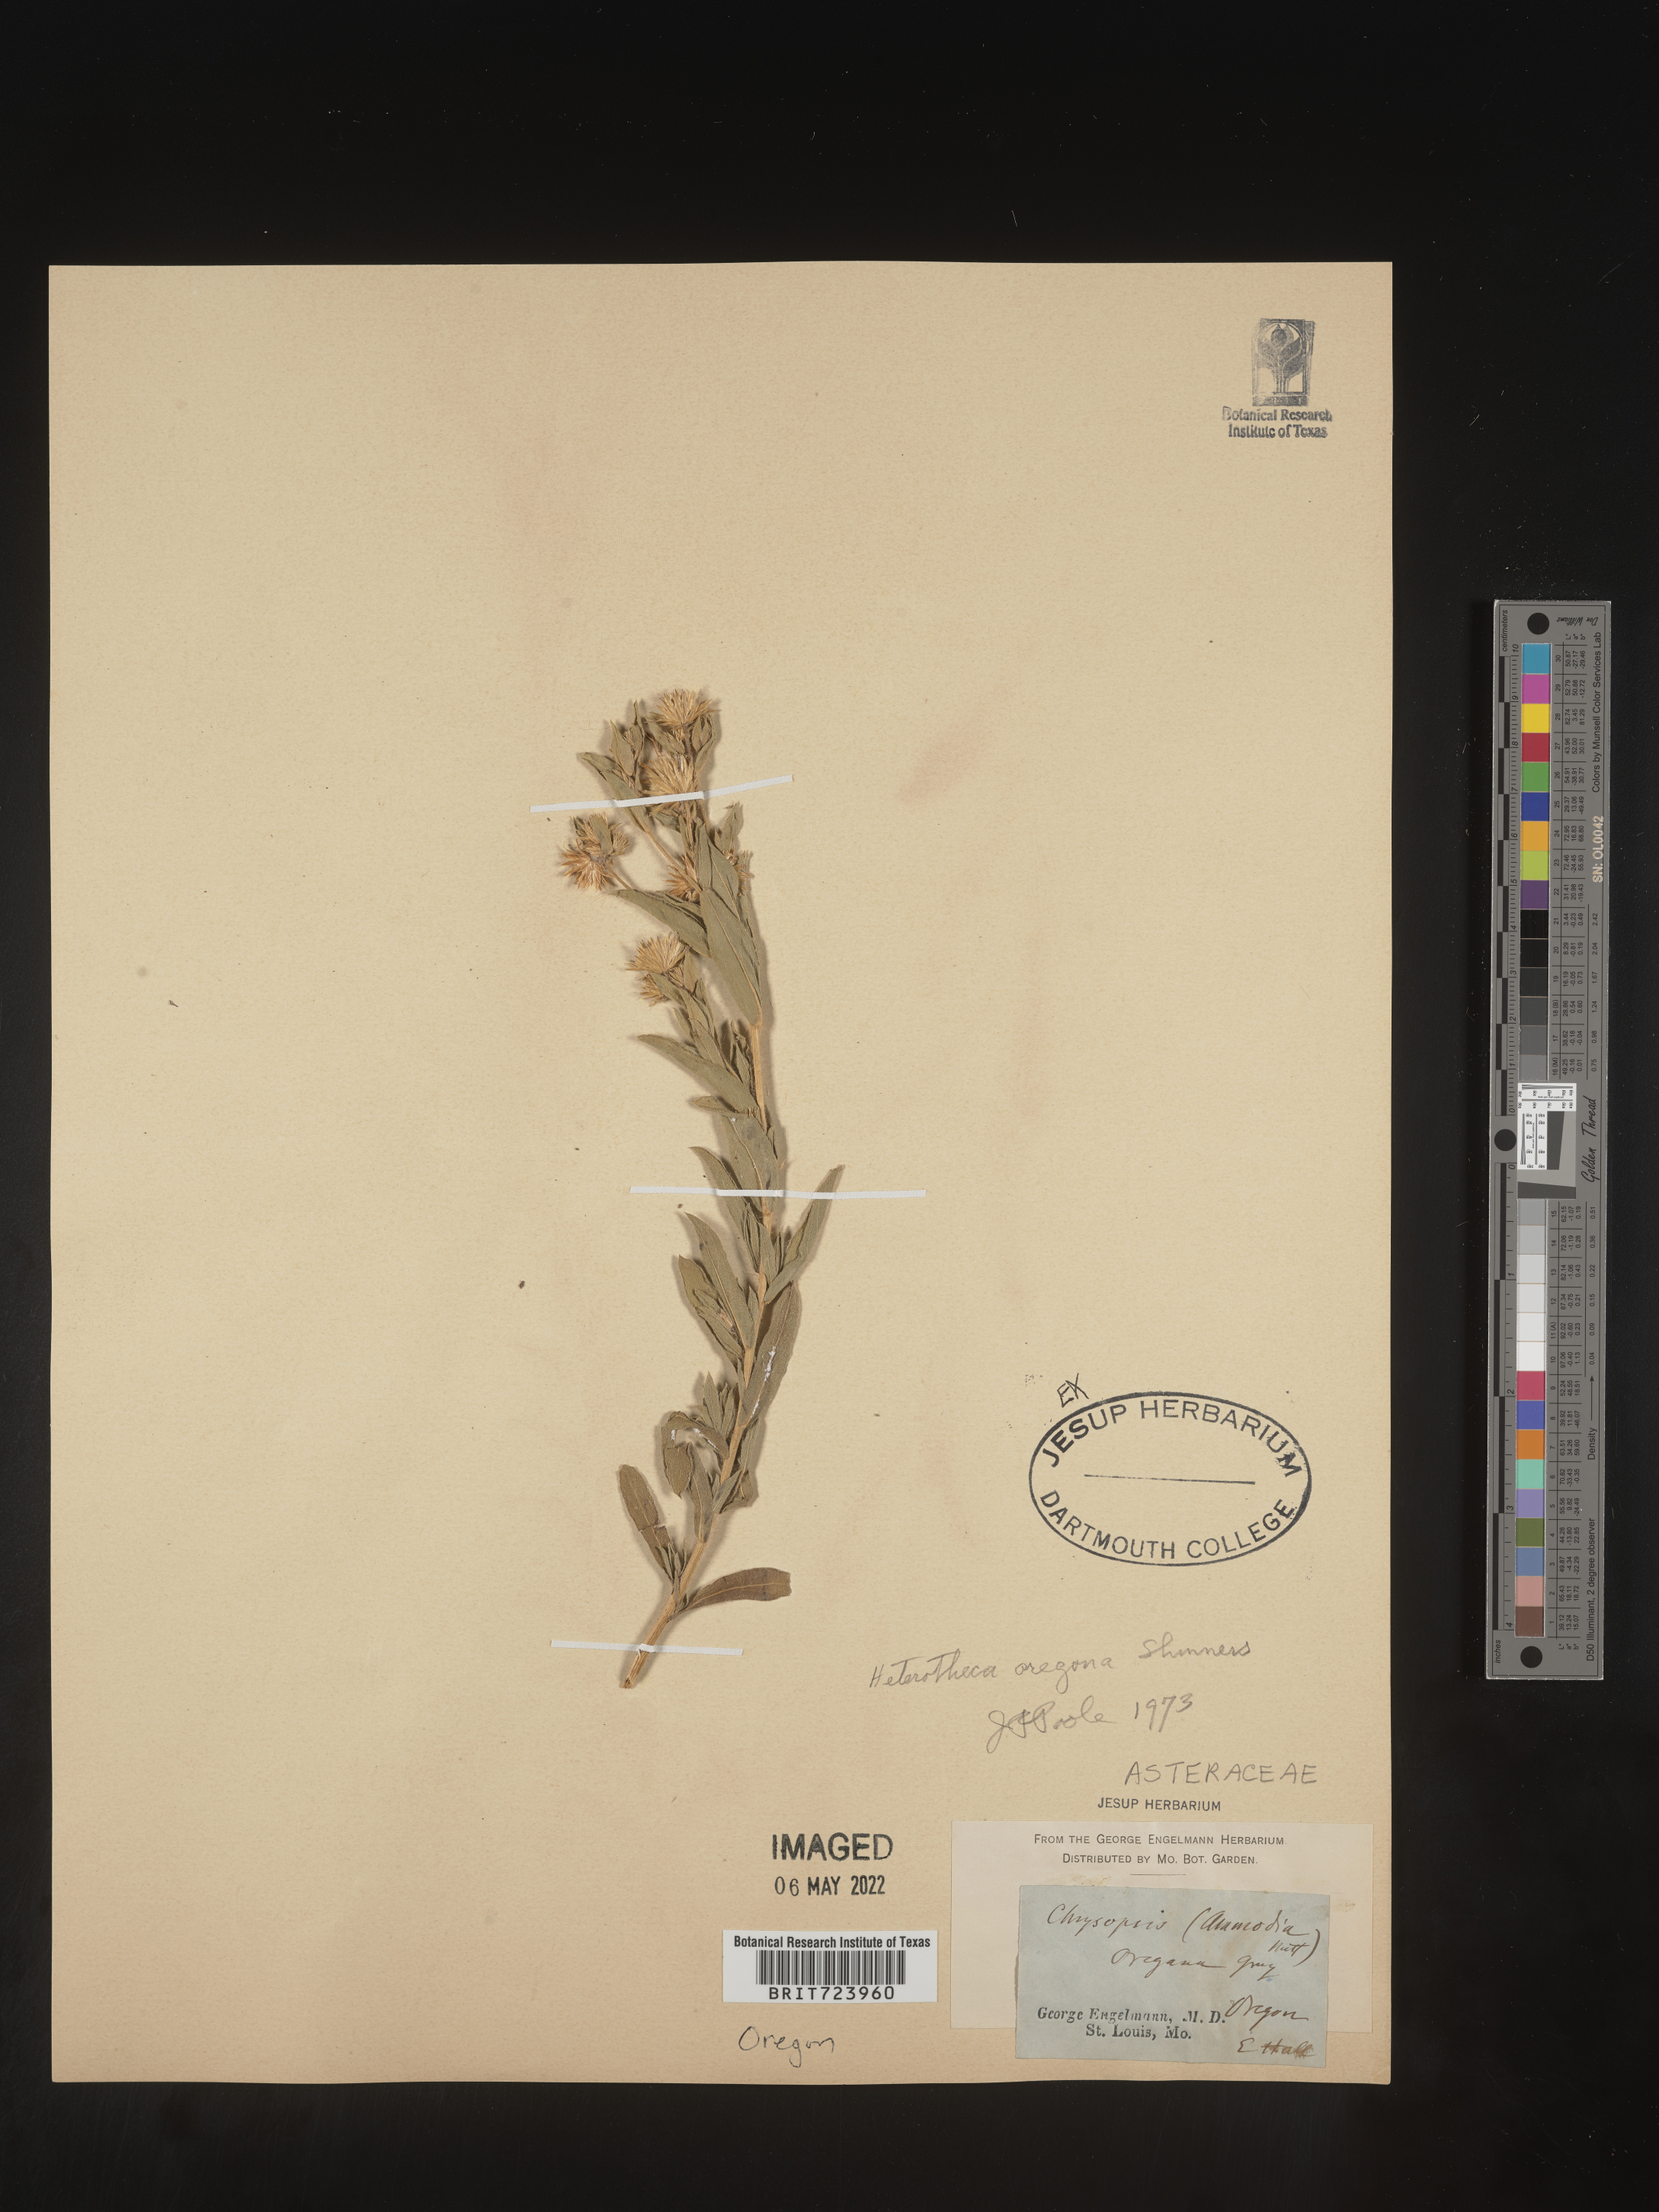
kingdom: Plantae
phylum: Tracheophyta
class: Magnoliopsida
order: Asterales
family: Asteraceae
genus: Heterotheca
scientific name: Heterotheca oregona
